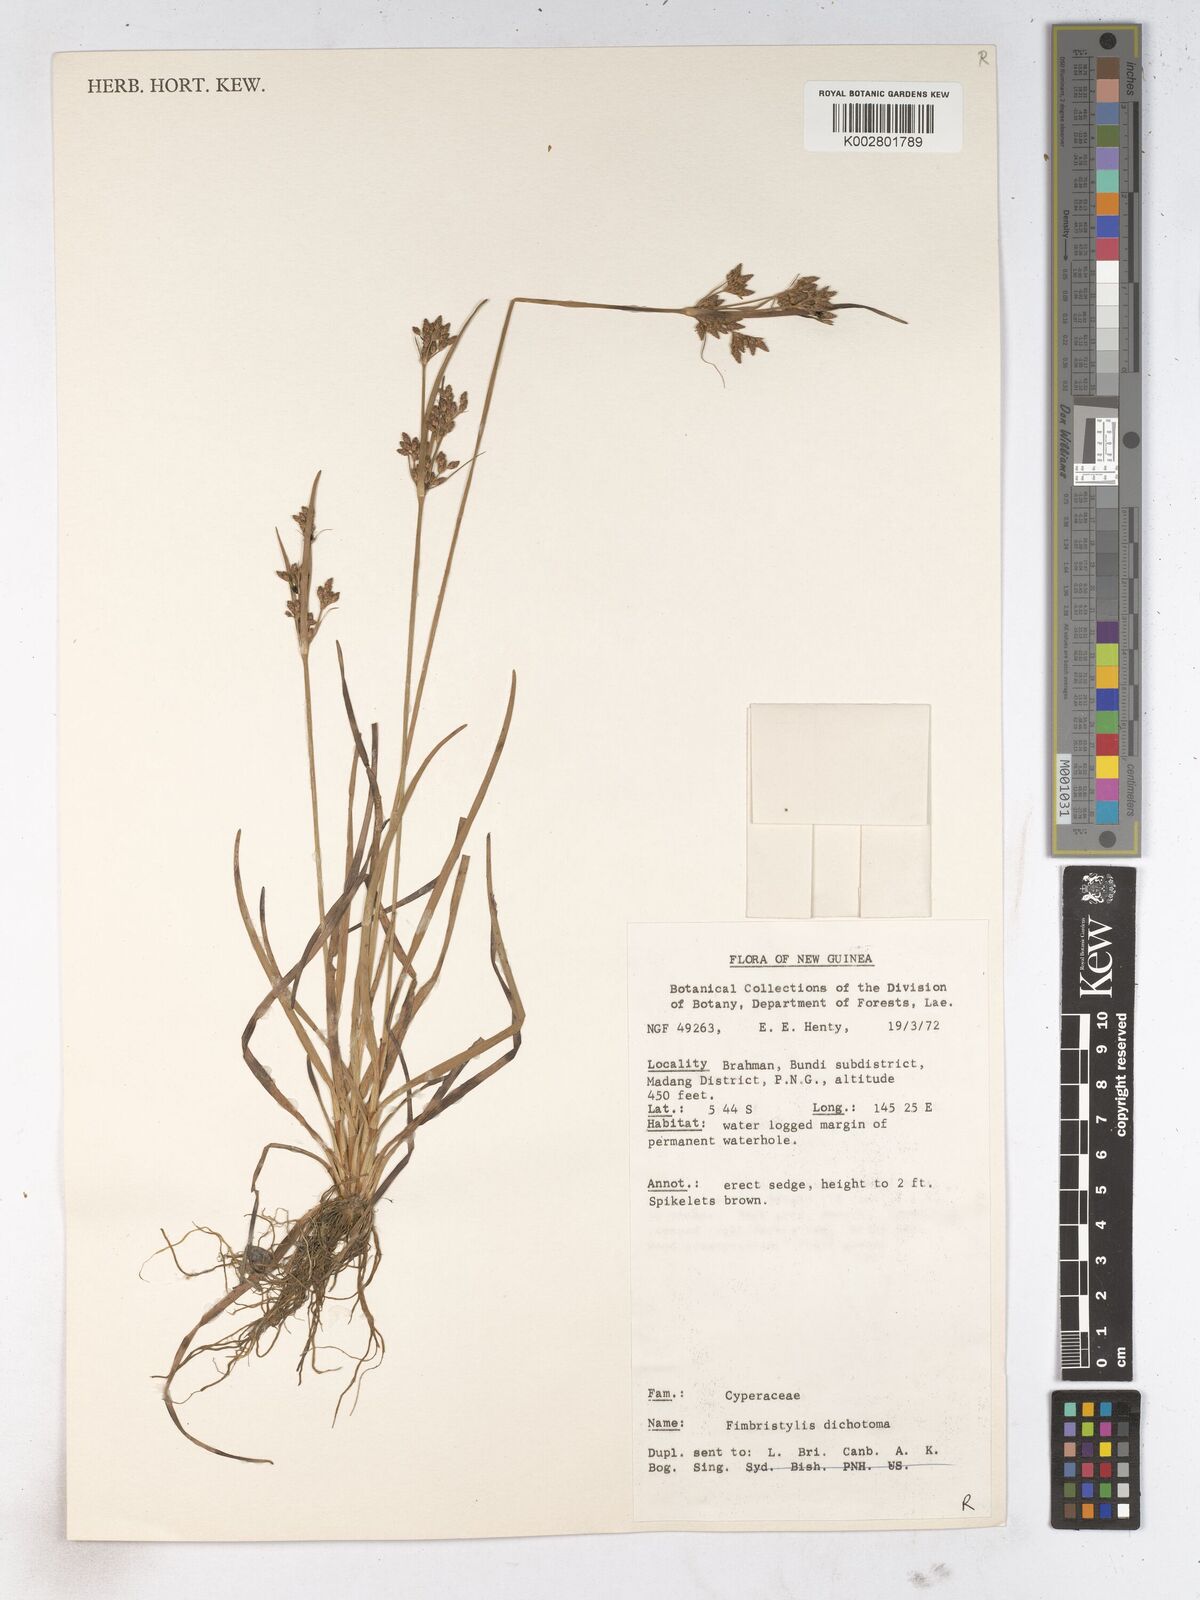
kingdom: Plantae
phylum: Tracheophyta
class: Liliopsida
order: Poales
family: Cyperaceae
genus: Fimbristylis
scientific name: Fimbristylis dichotoma
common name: Forked fimbry
